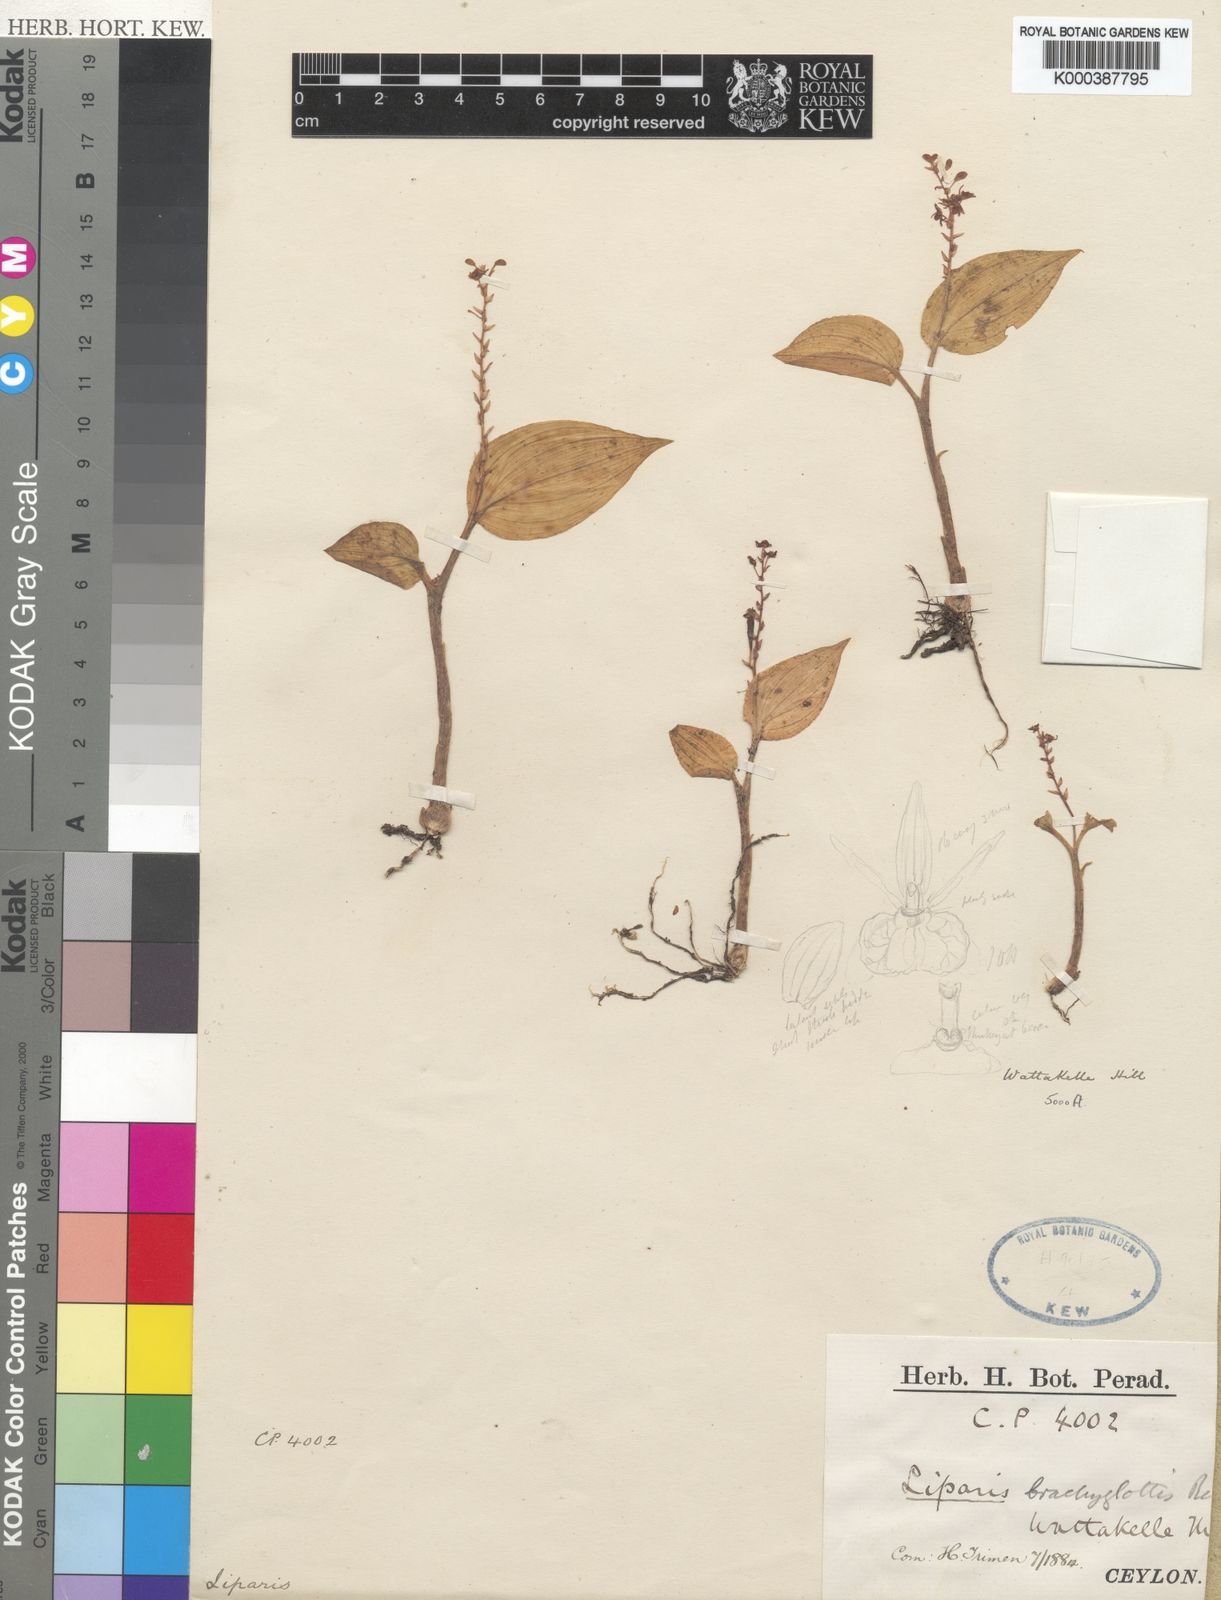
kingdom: Plantae
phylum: Tracheophyta
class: Liliopsida
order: Asparagales
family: Orchidaceae
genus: Liparis
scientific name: Liparis brachyglottis
